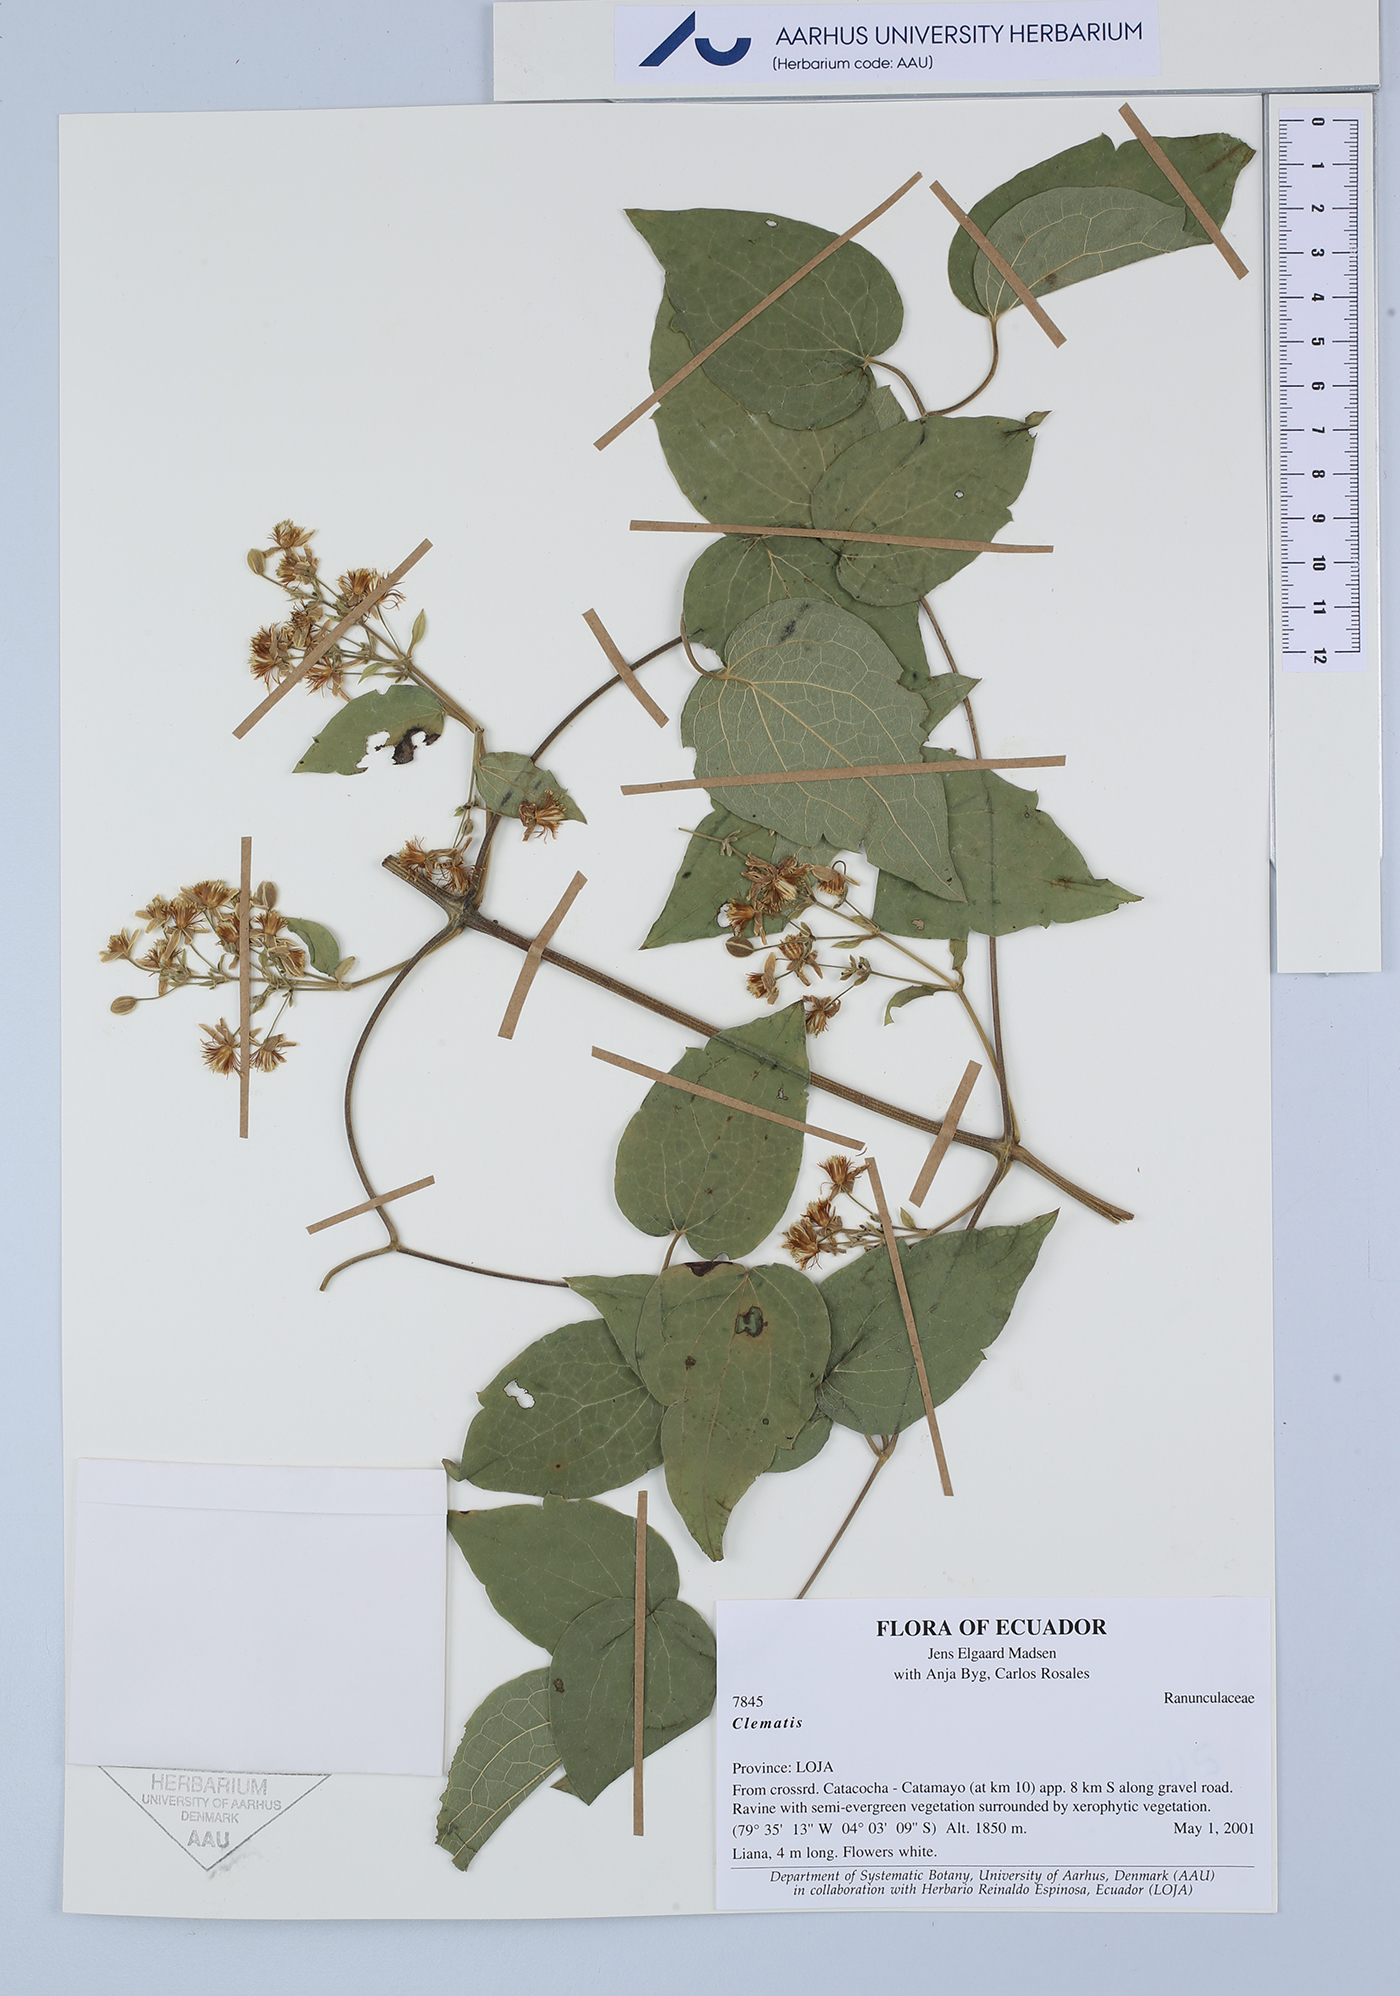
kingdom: Plantae
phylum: Tracheophyta
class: Magnoliopsida
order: Ranunculales
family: Ranunculaceae
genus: Clematis
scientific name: Clematis
